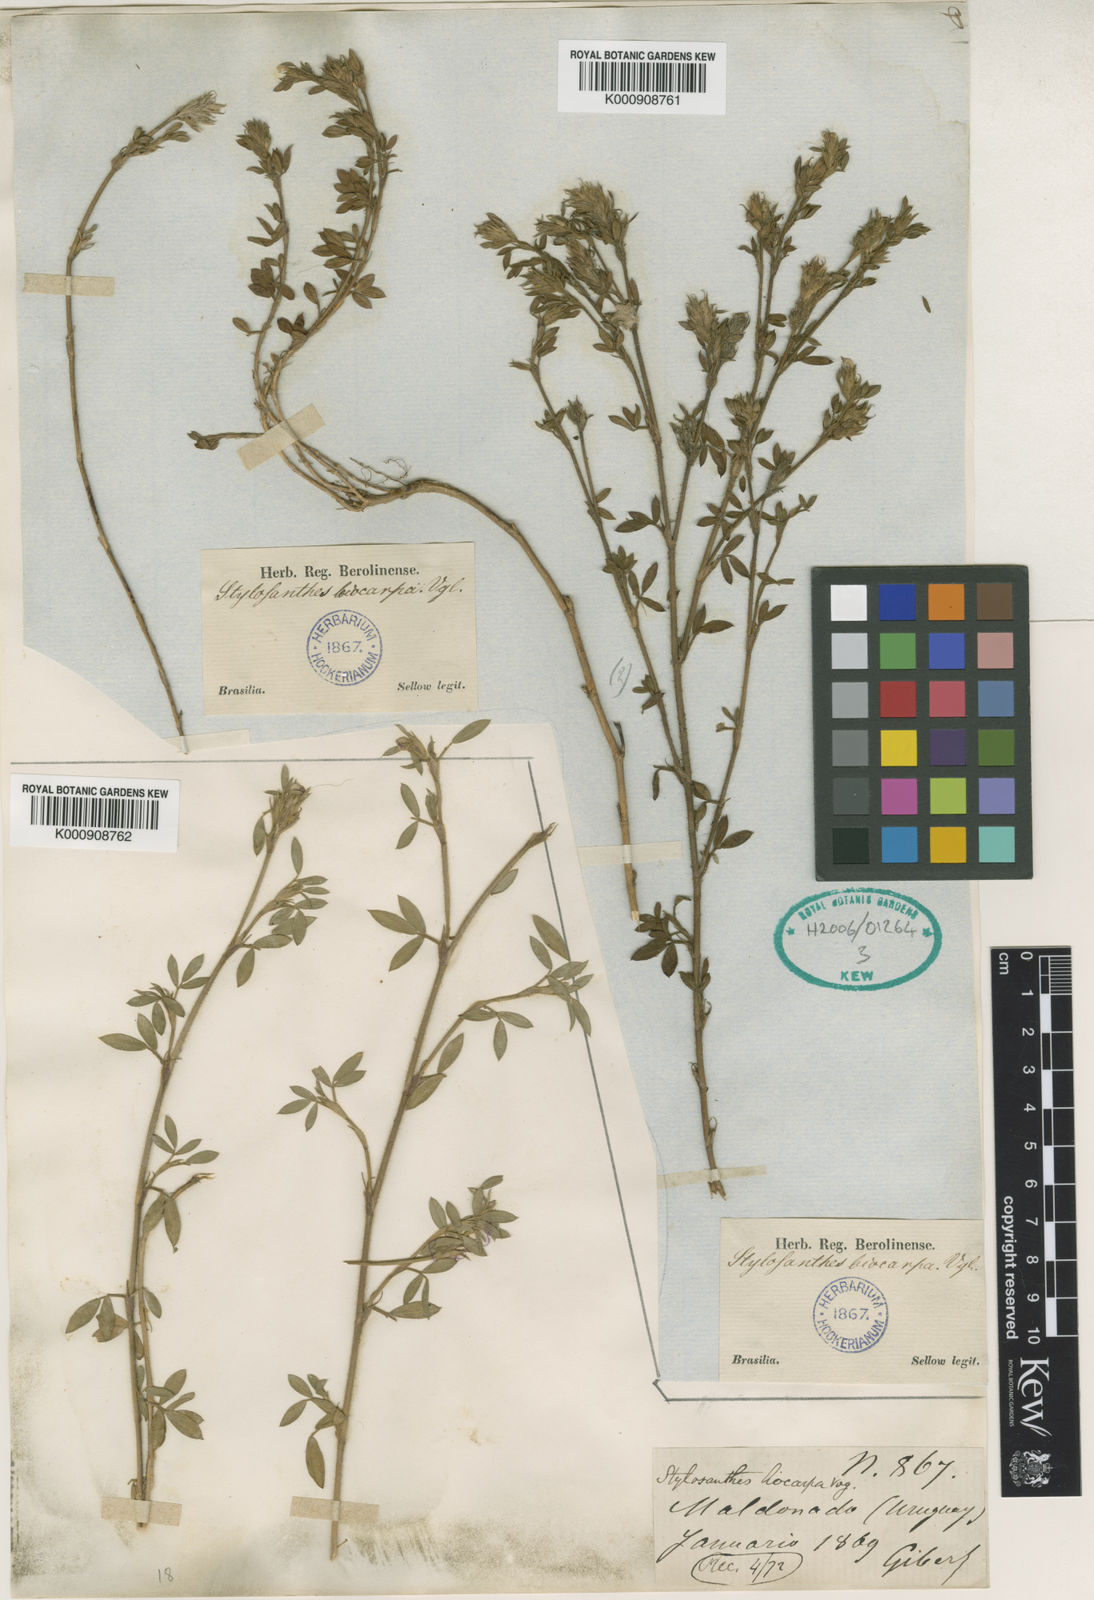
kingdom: Plantae
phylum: Tracheophyta
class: Magnoliopsida
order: Fabales
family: Fabaceae
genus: Stylosanthes
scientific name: Stylosanthes leiocarpa
